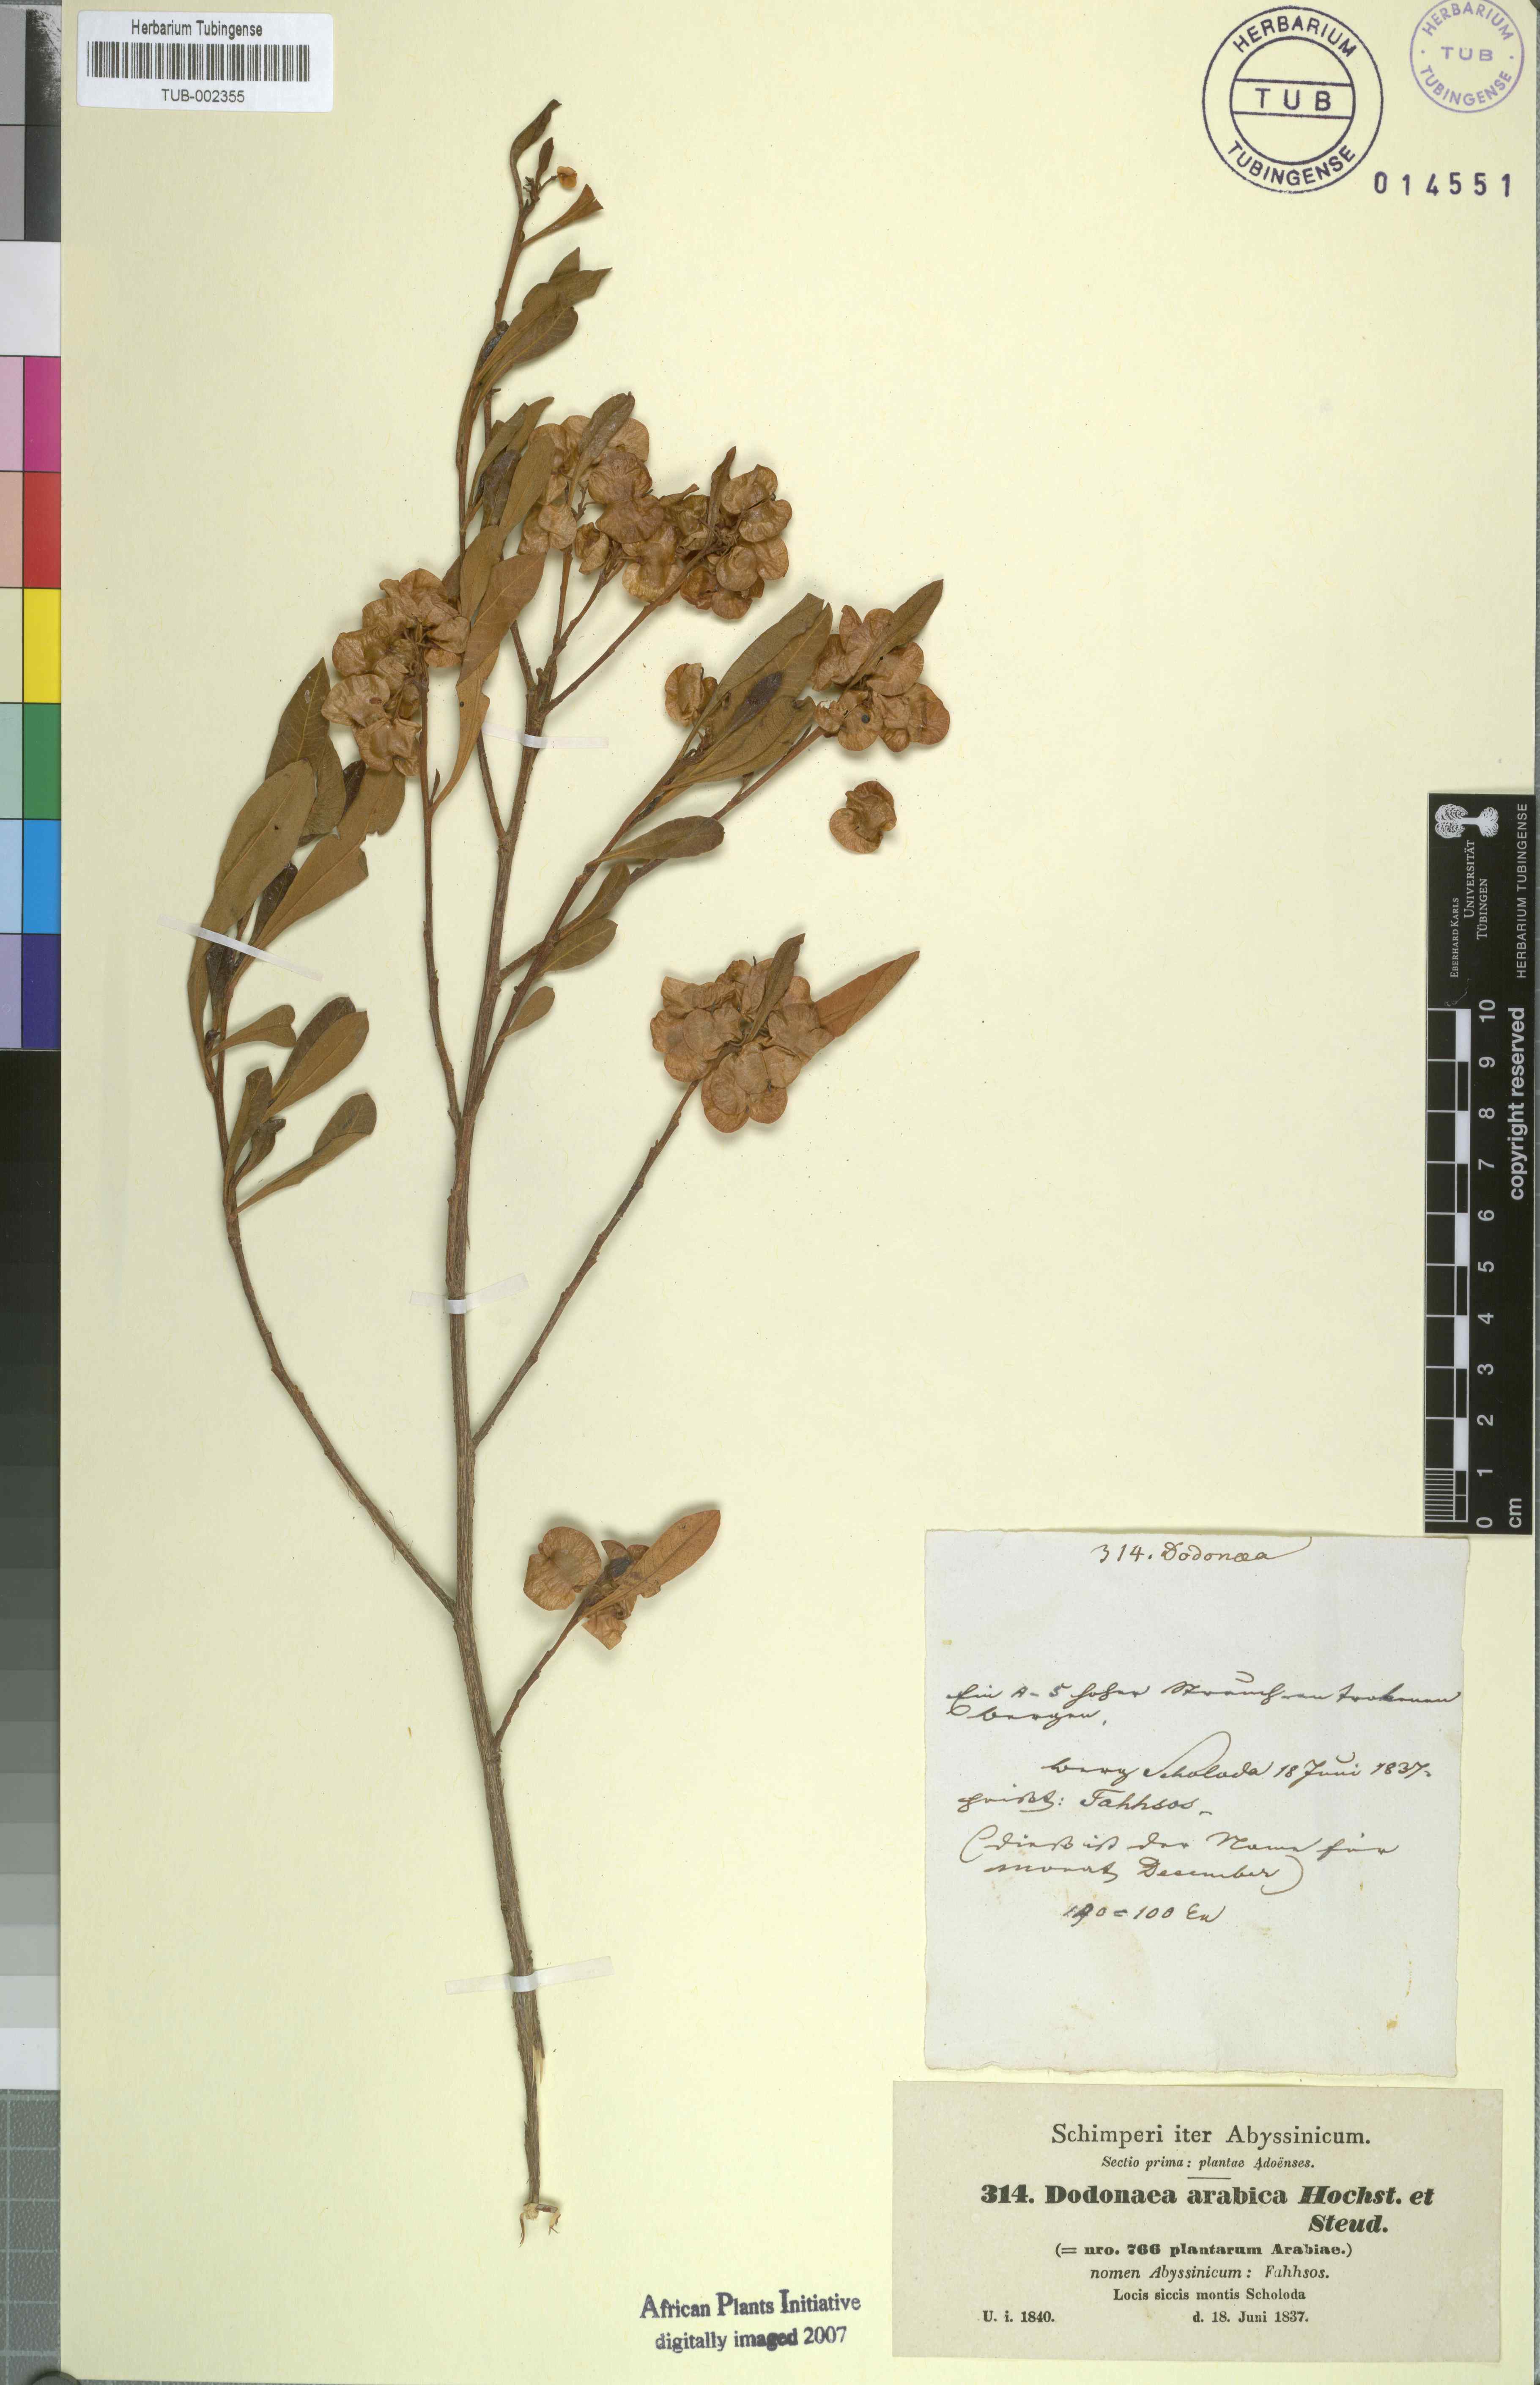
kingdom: Plantae
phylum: Tracheophyta
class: Magnoliopsida
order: Sapindales
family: Sapindaceae
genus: Dodonaea
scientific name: Dodonaea viscosa
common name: Hopbush
